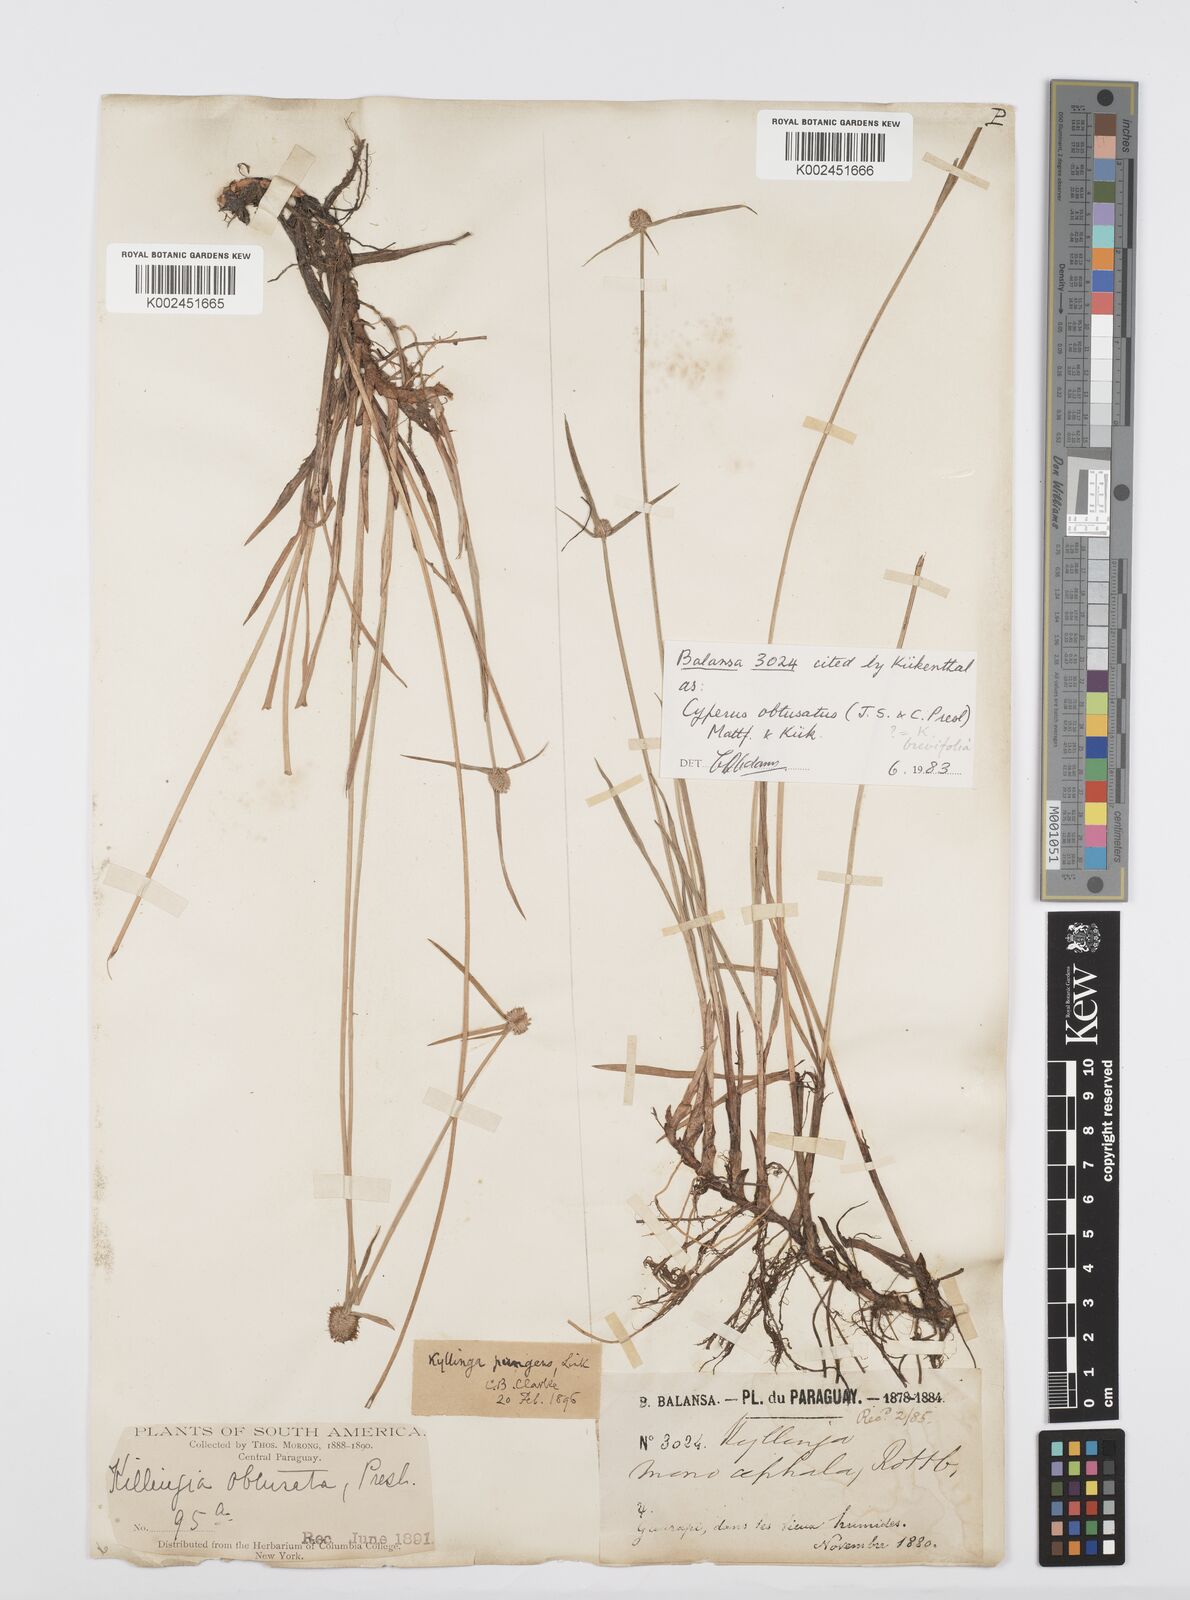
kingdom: Plantae
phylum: Tracheophyta
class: Liliopsida
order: Poales
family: Cyperaceae
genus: Cyperus
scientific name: Cyperus obtusatus
